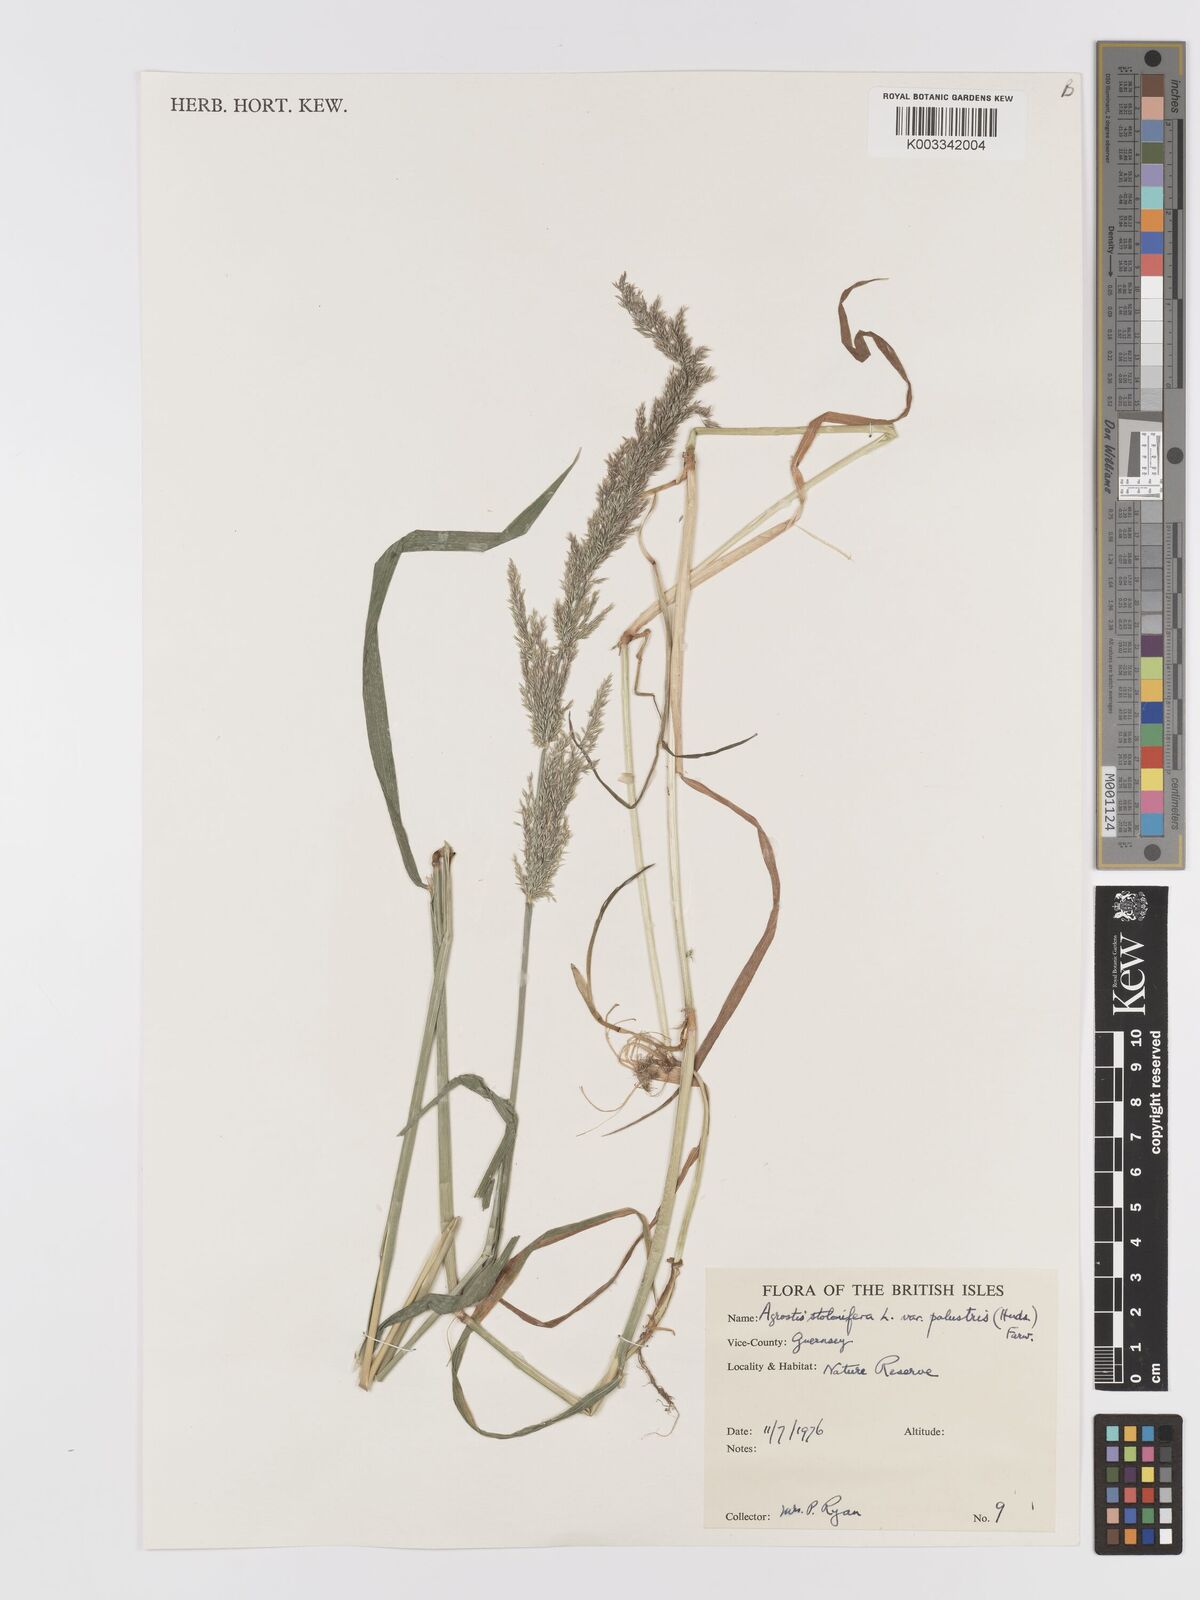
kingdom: Plantae
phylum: Tracheophyta
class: Liliopsida
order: Poales
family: Poaceae
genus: Agrostis
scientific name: Agrostis stolonifera
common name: Creeping bentgrass
